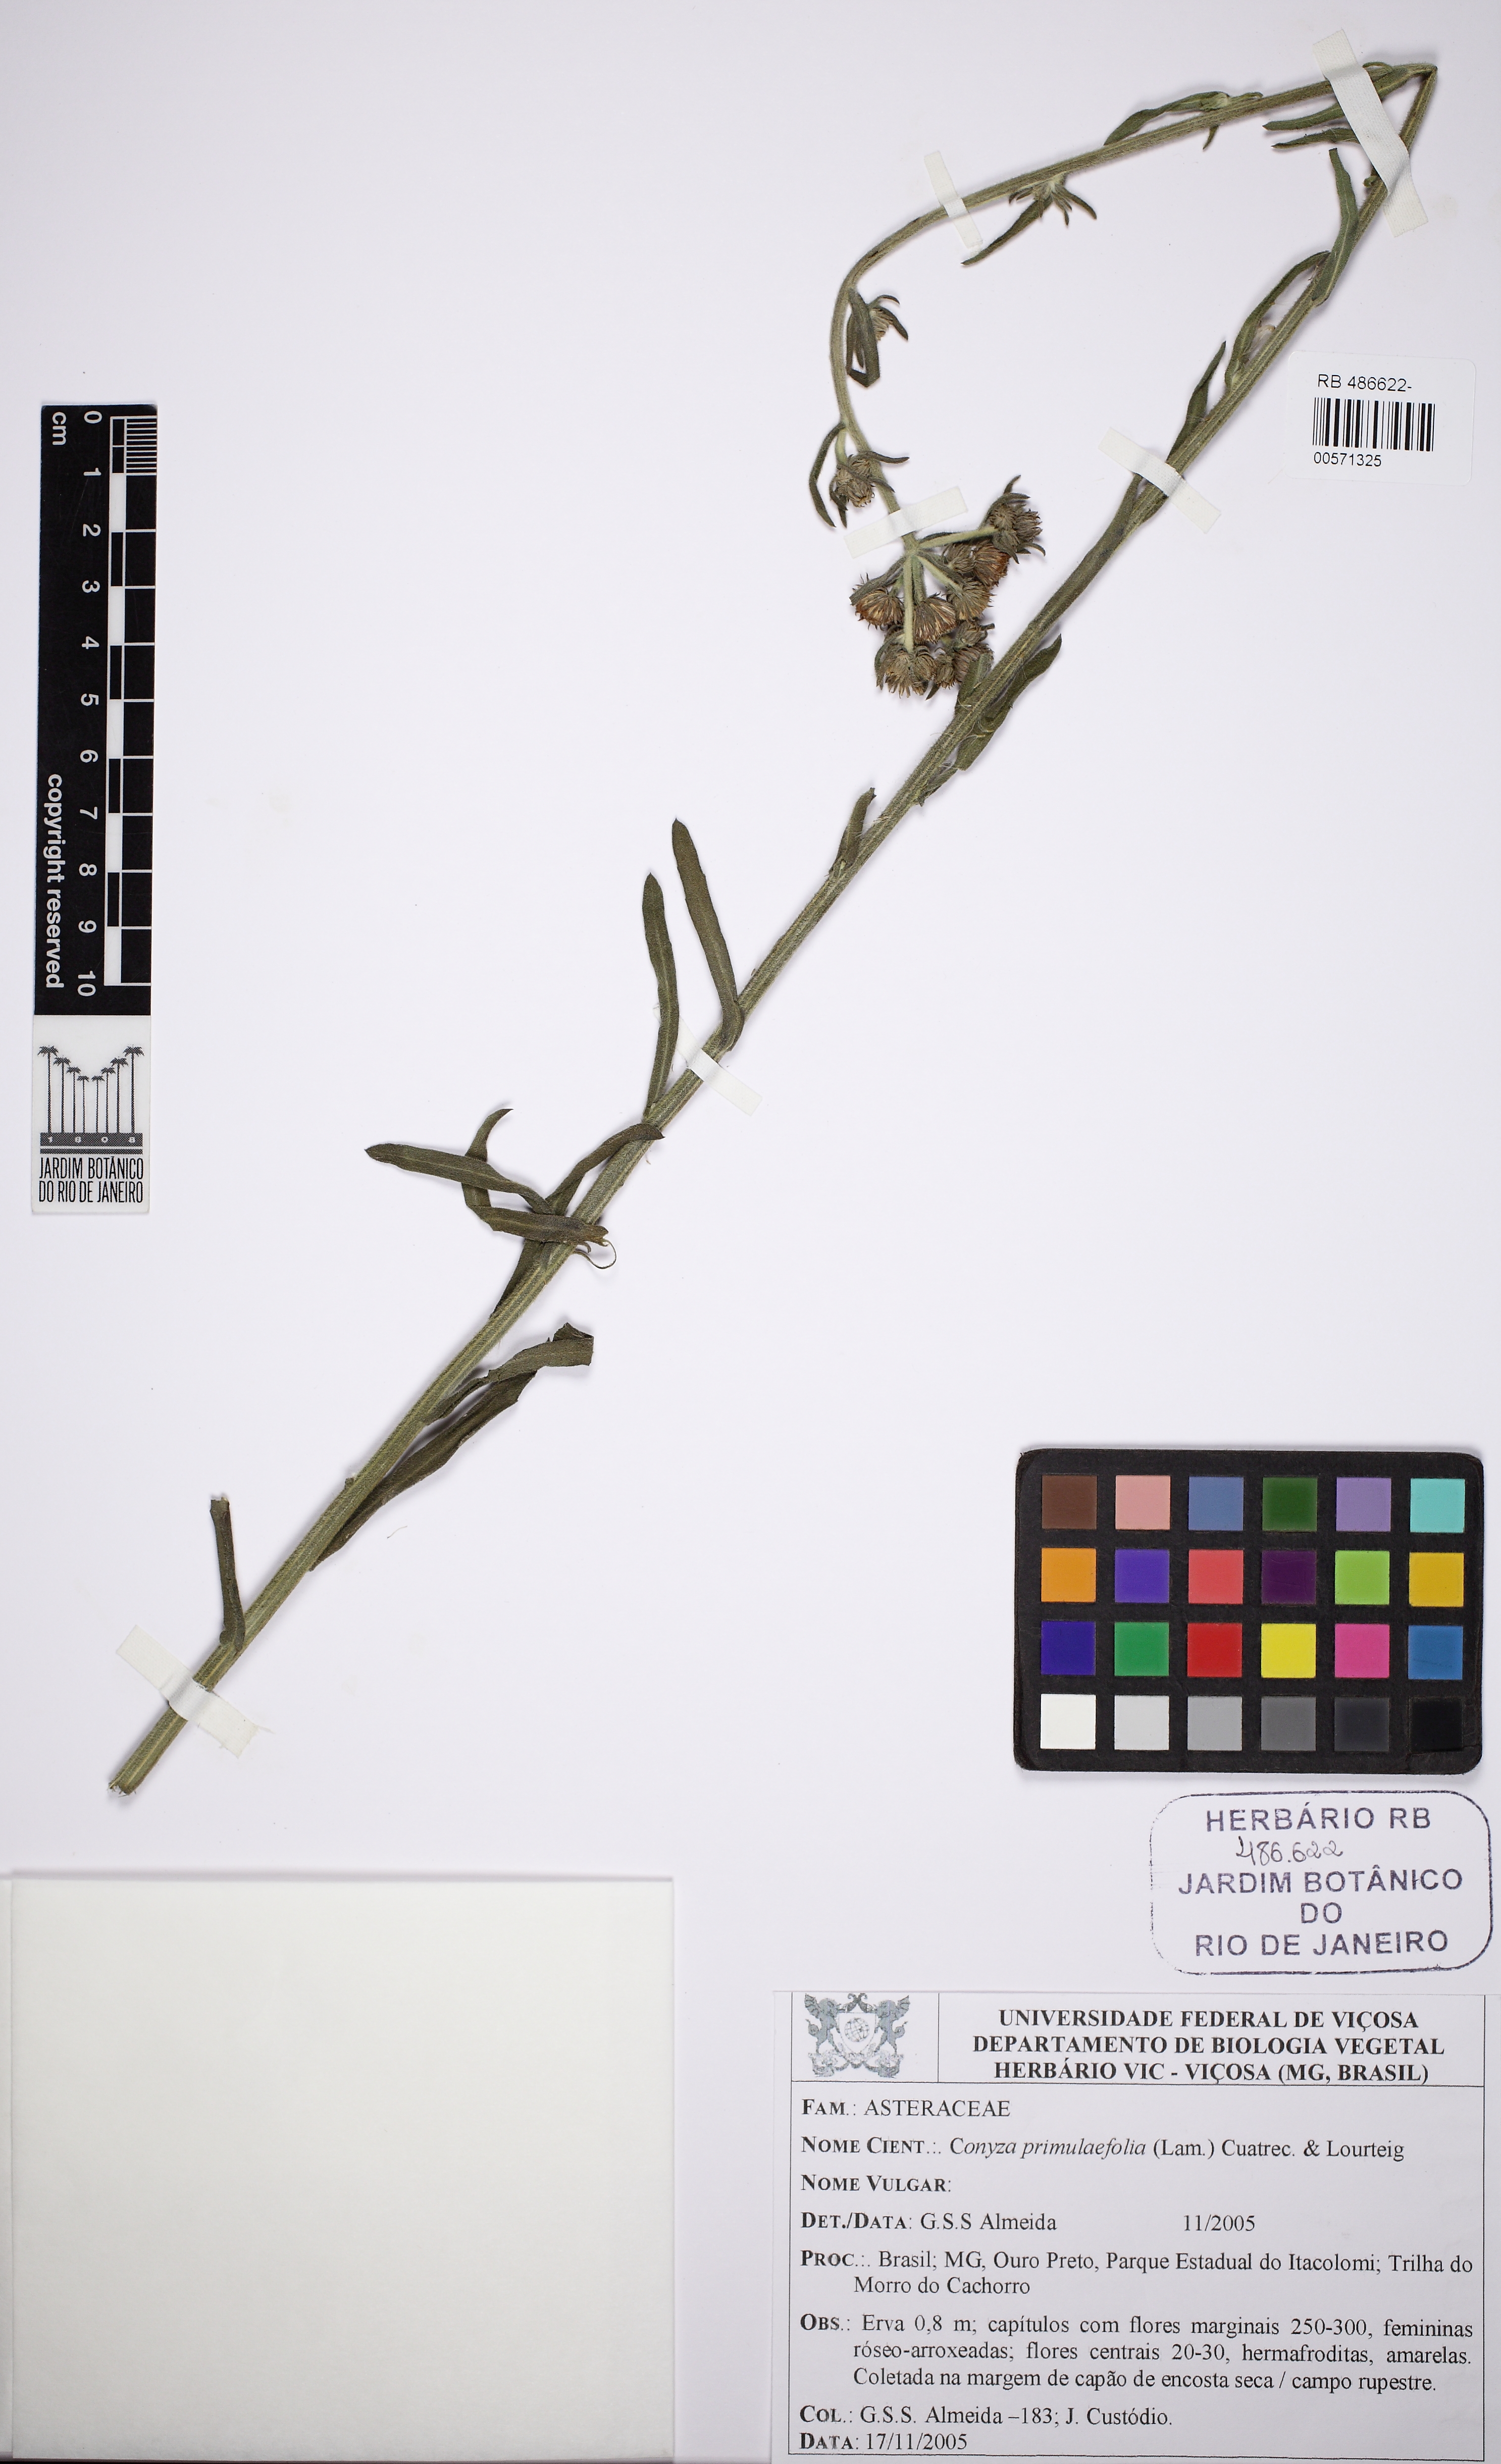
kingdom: Plantae
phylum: Tracheophyta
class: Magnoliopsida
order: Asterales
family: Asteraceae
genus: Erigeron
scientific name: Erigeron primulifolius
